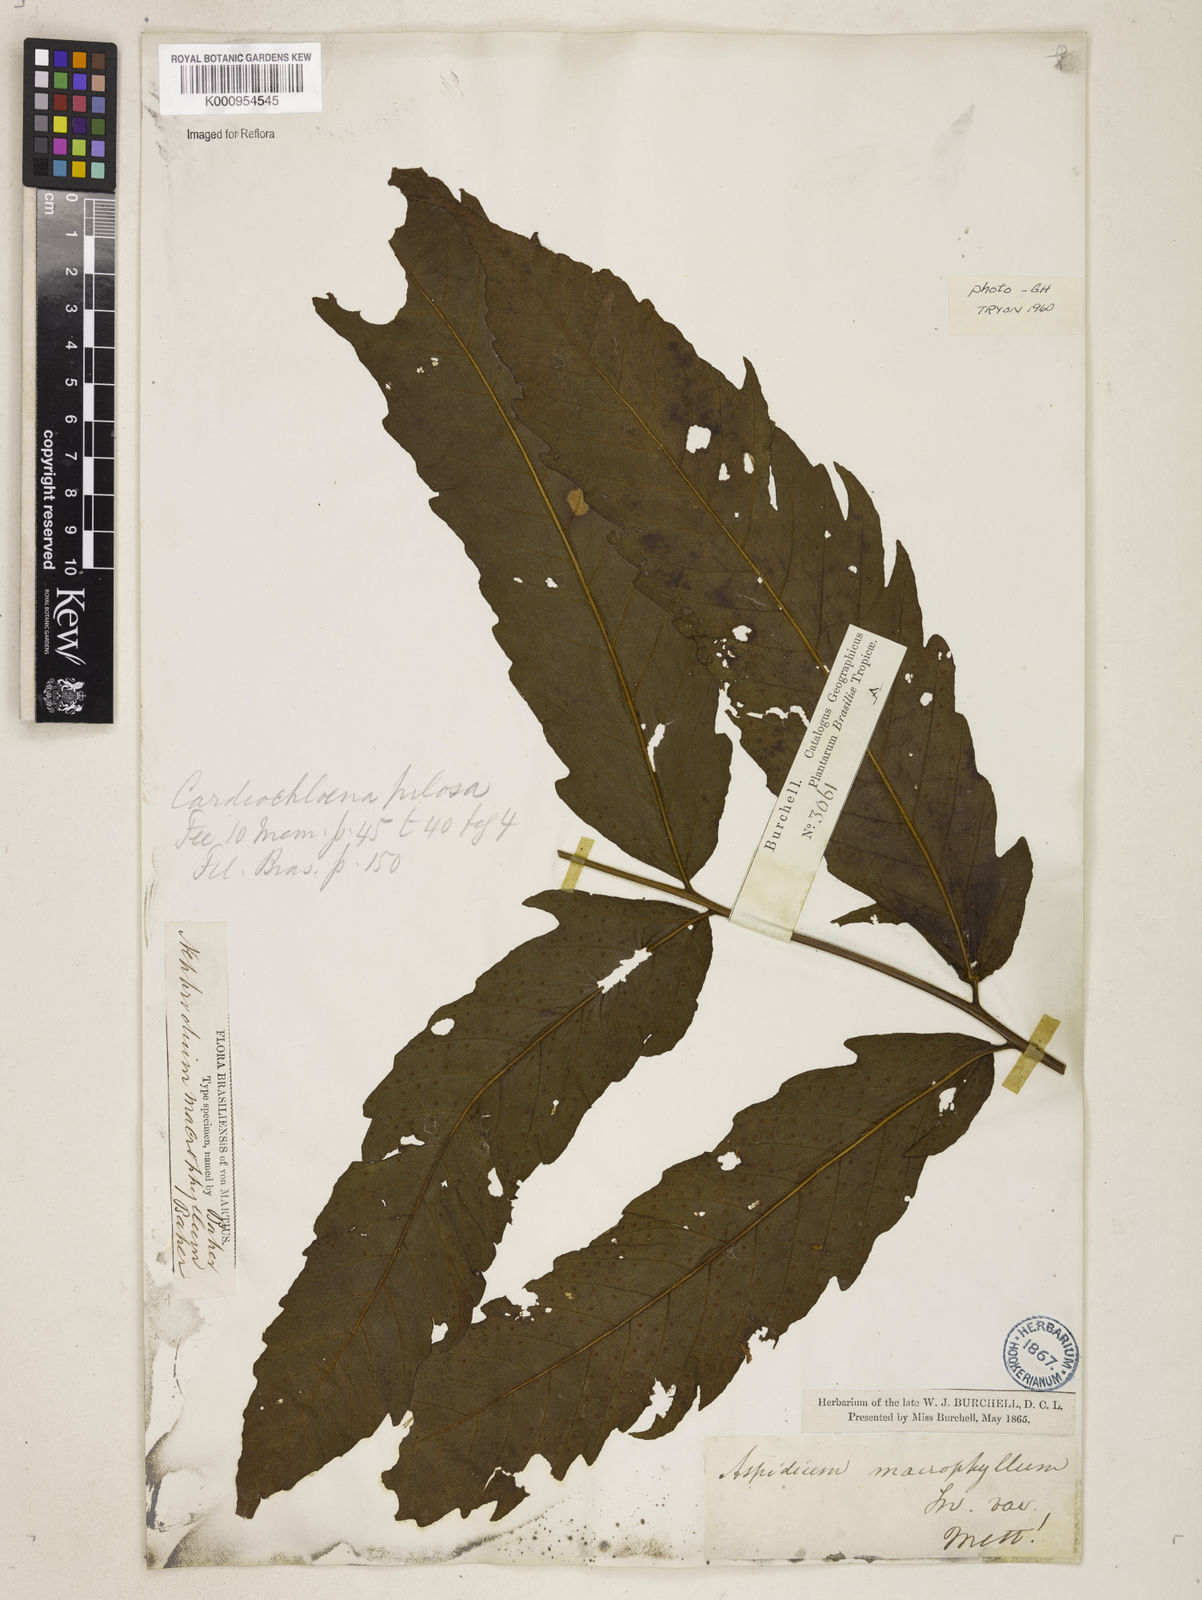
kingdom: Plantae
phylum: Tracheophyta
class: Polypodiopsida
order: Polypodiales
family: Tectariaceae
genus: Tectaria
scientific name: Tectaria incisa
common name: Incised halberd fern
